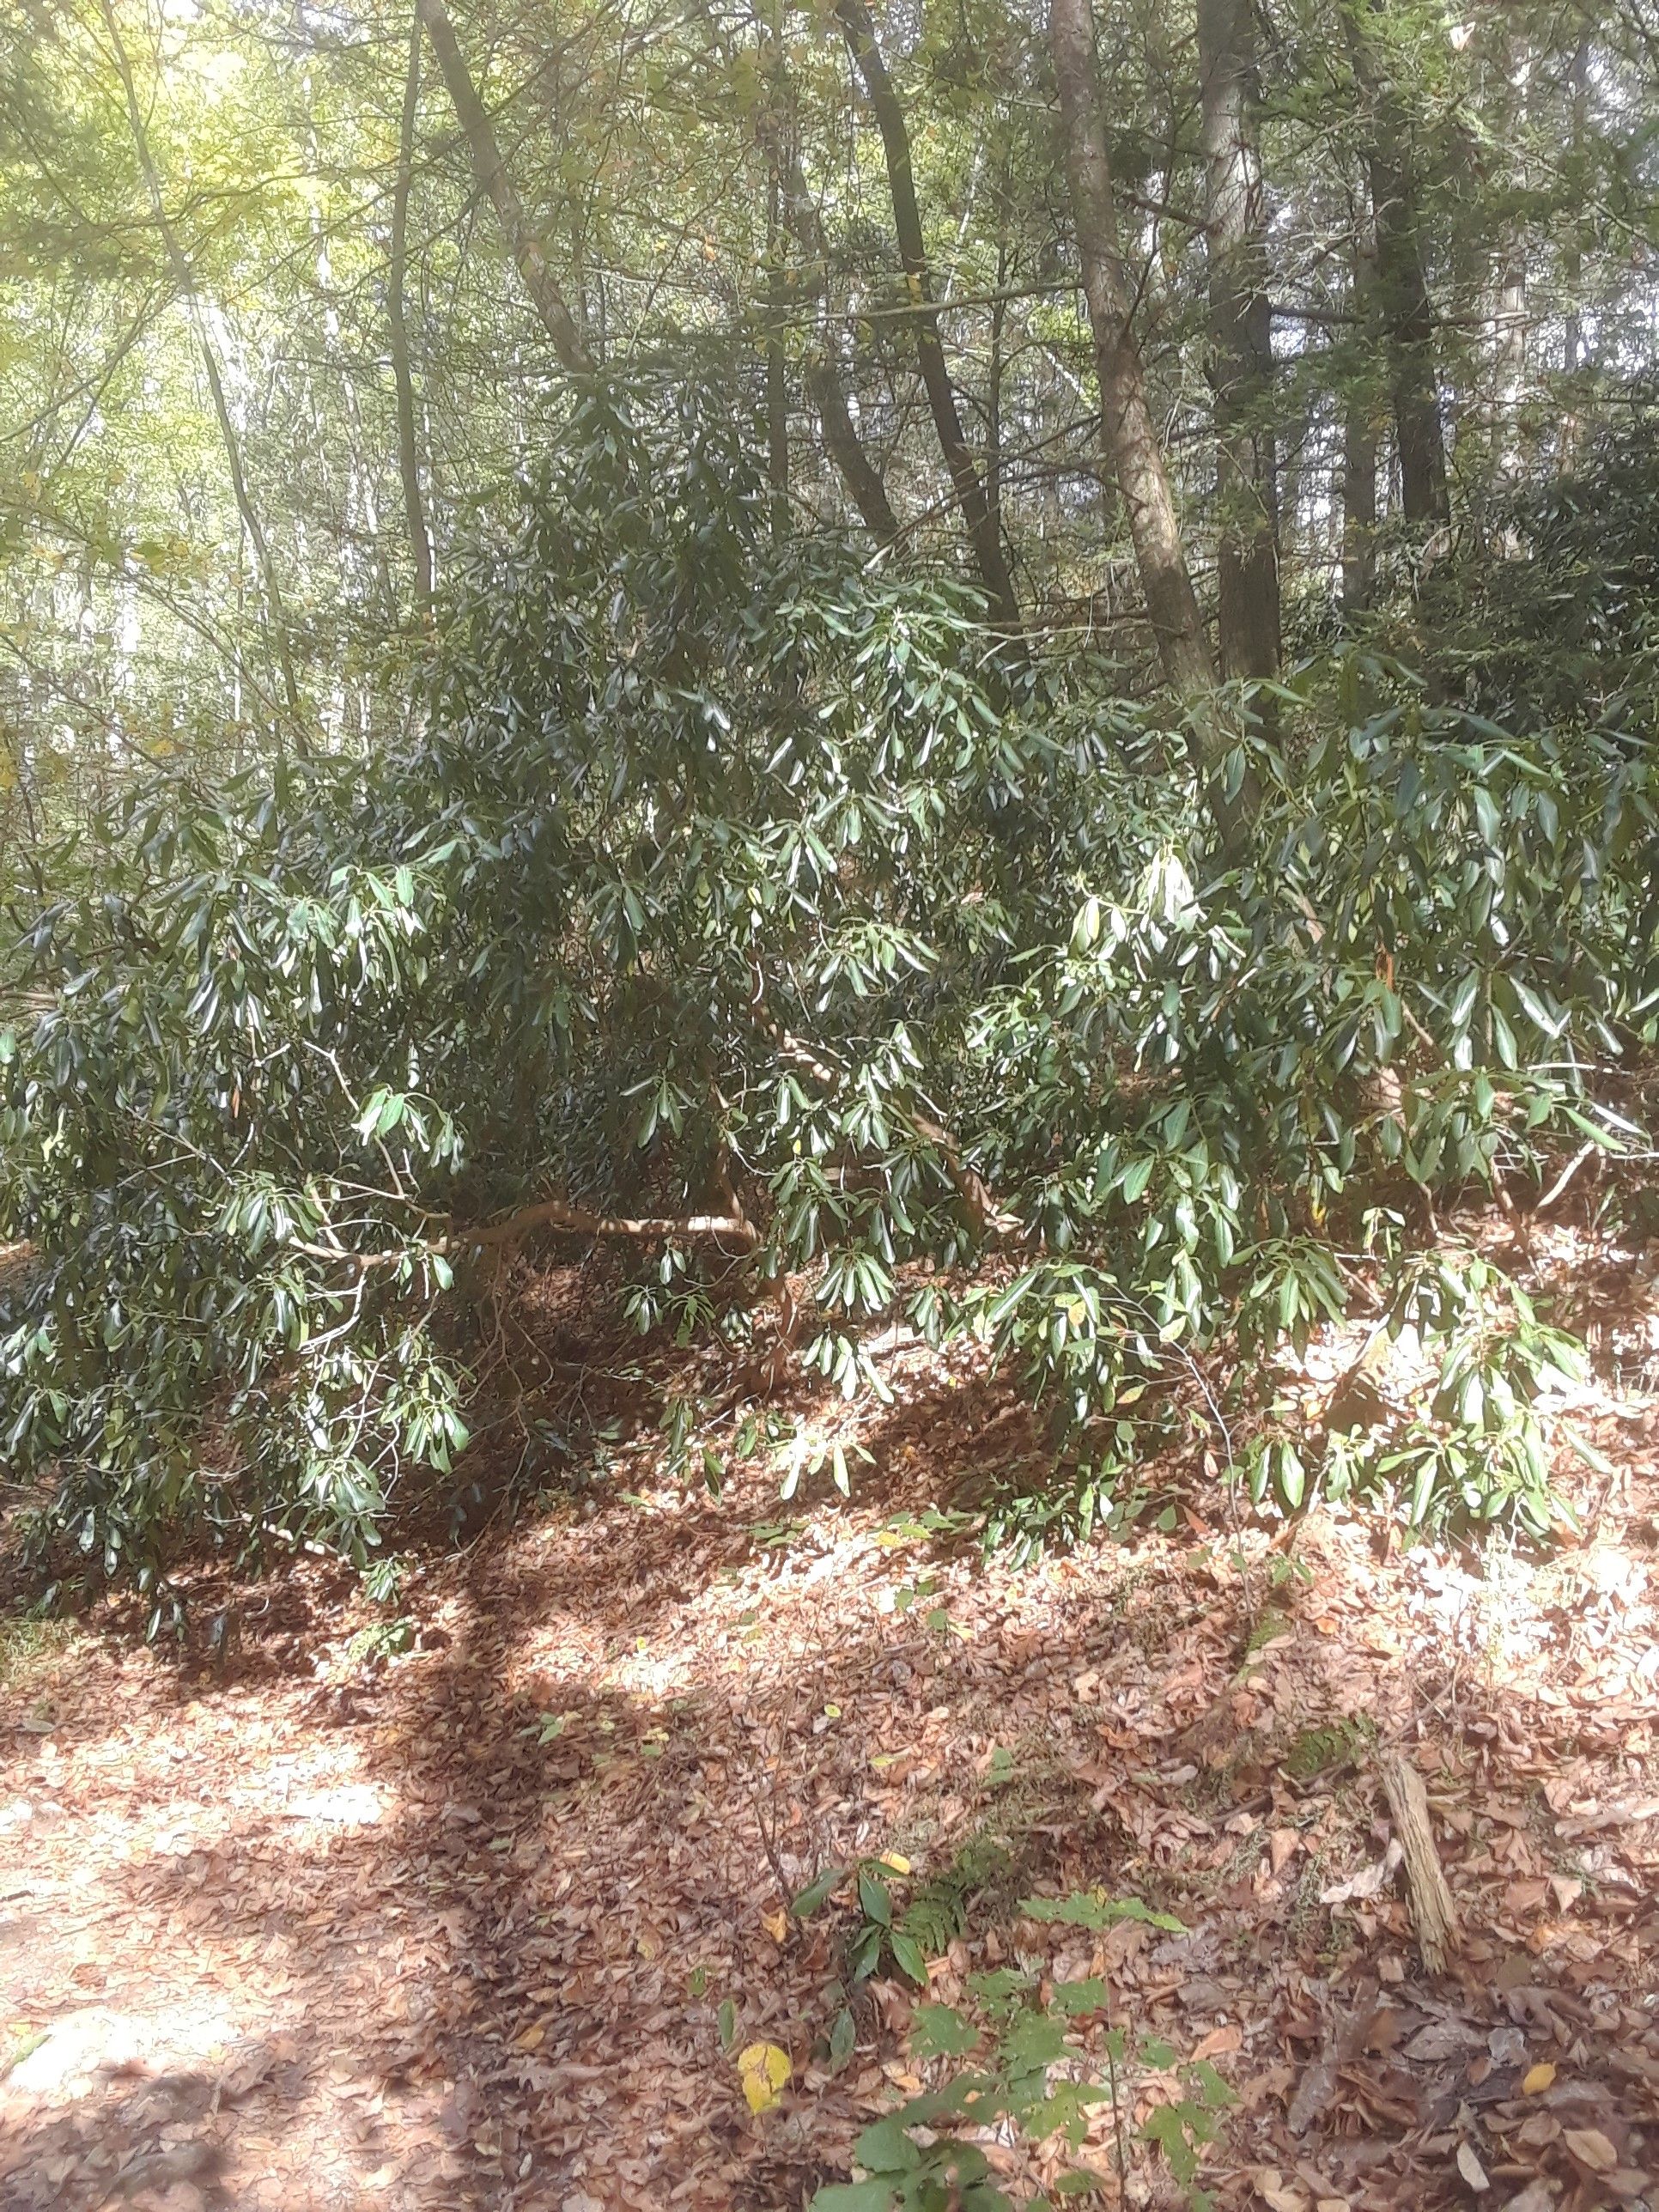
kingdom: Plantae
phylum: Tracheophyta
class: Magnoliopsida
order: Ericales
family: Ericaceae
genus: Rhododendron
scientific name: Rhododendron maximum
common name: American Rhododendron
